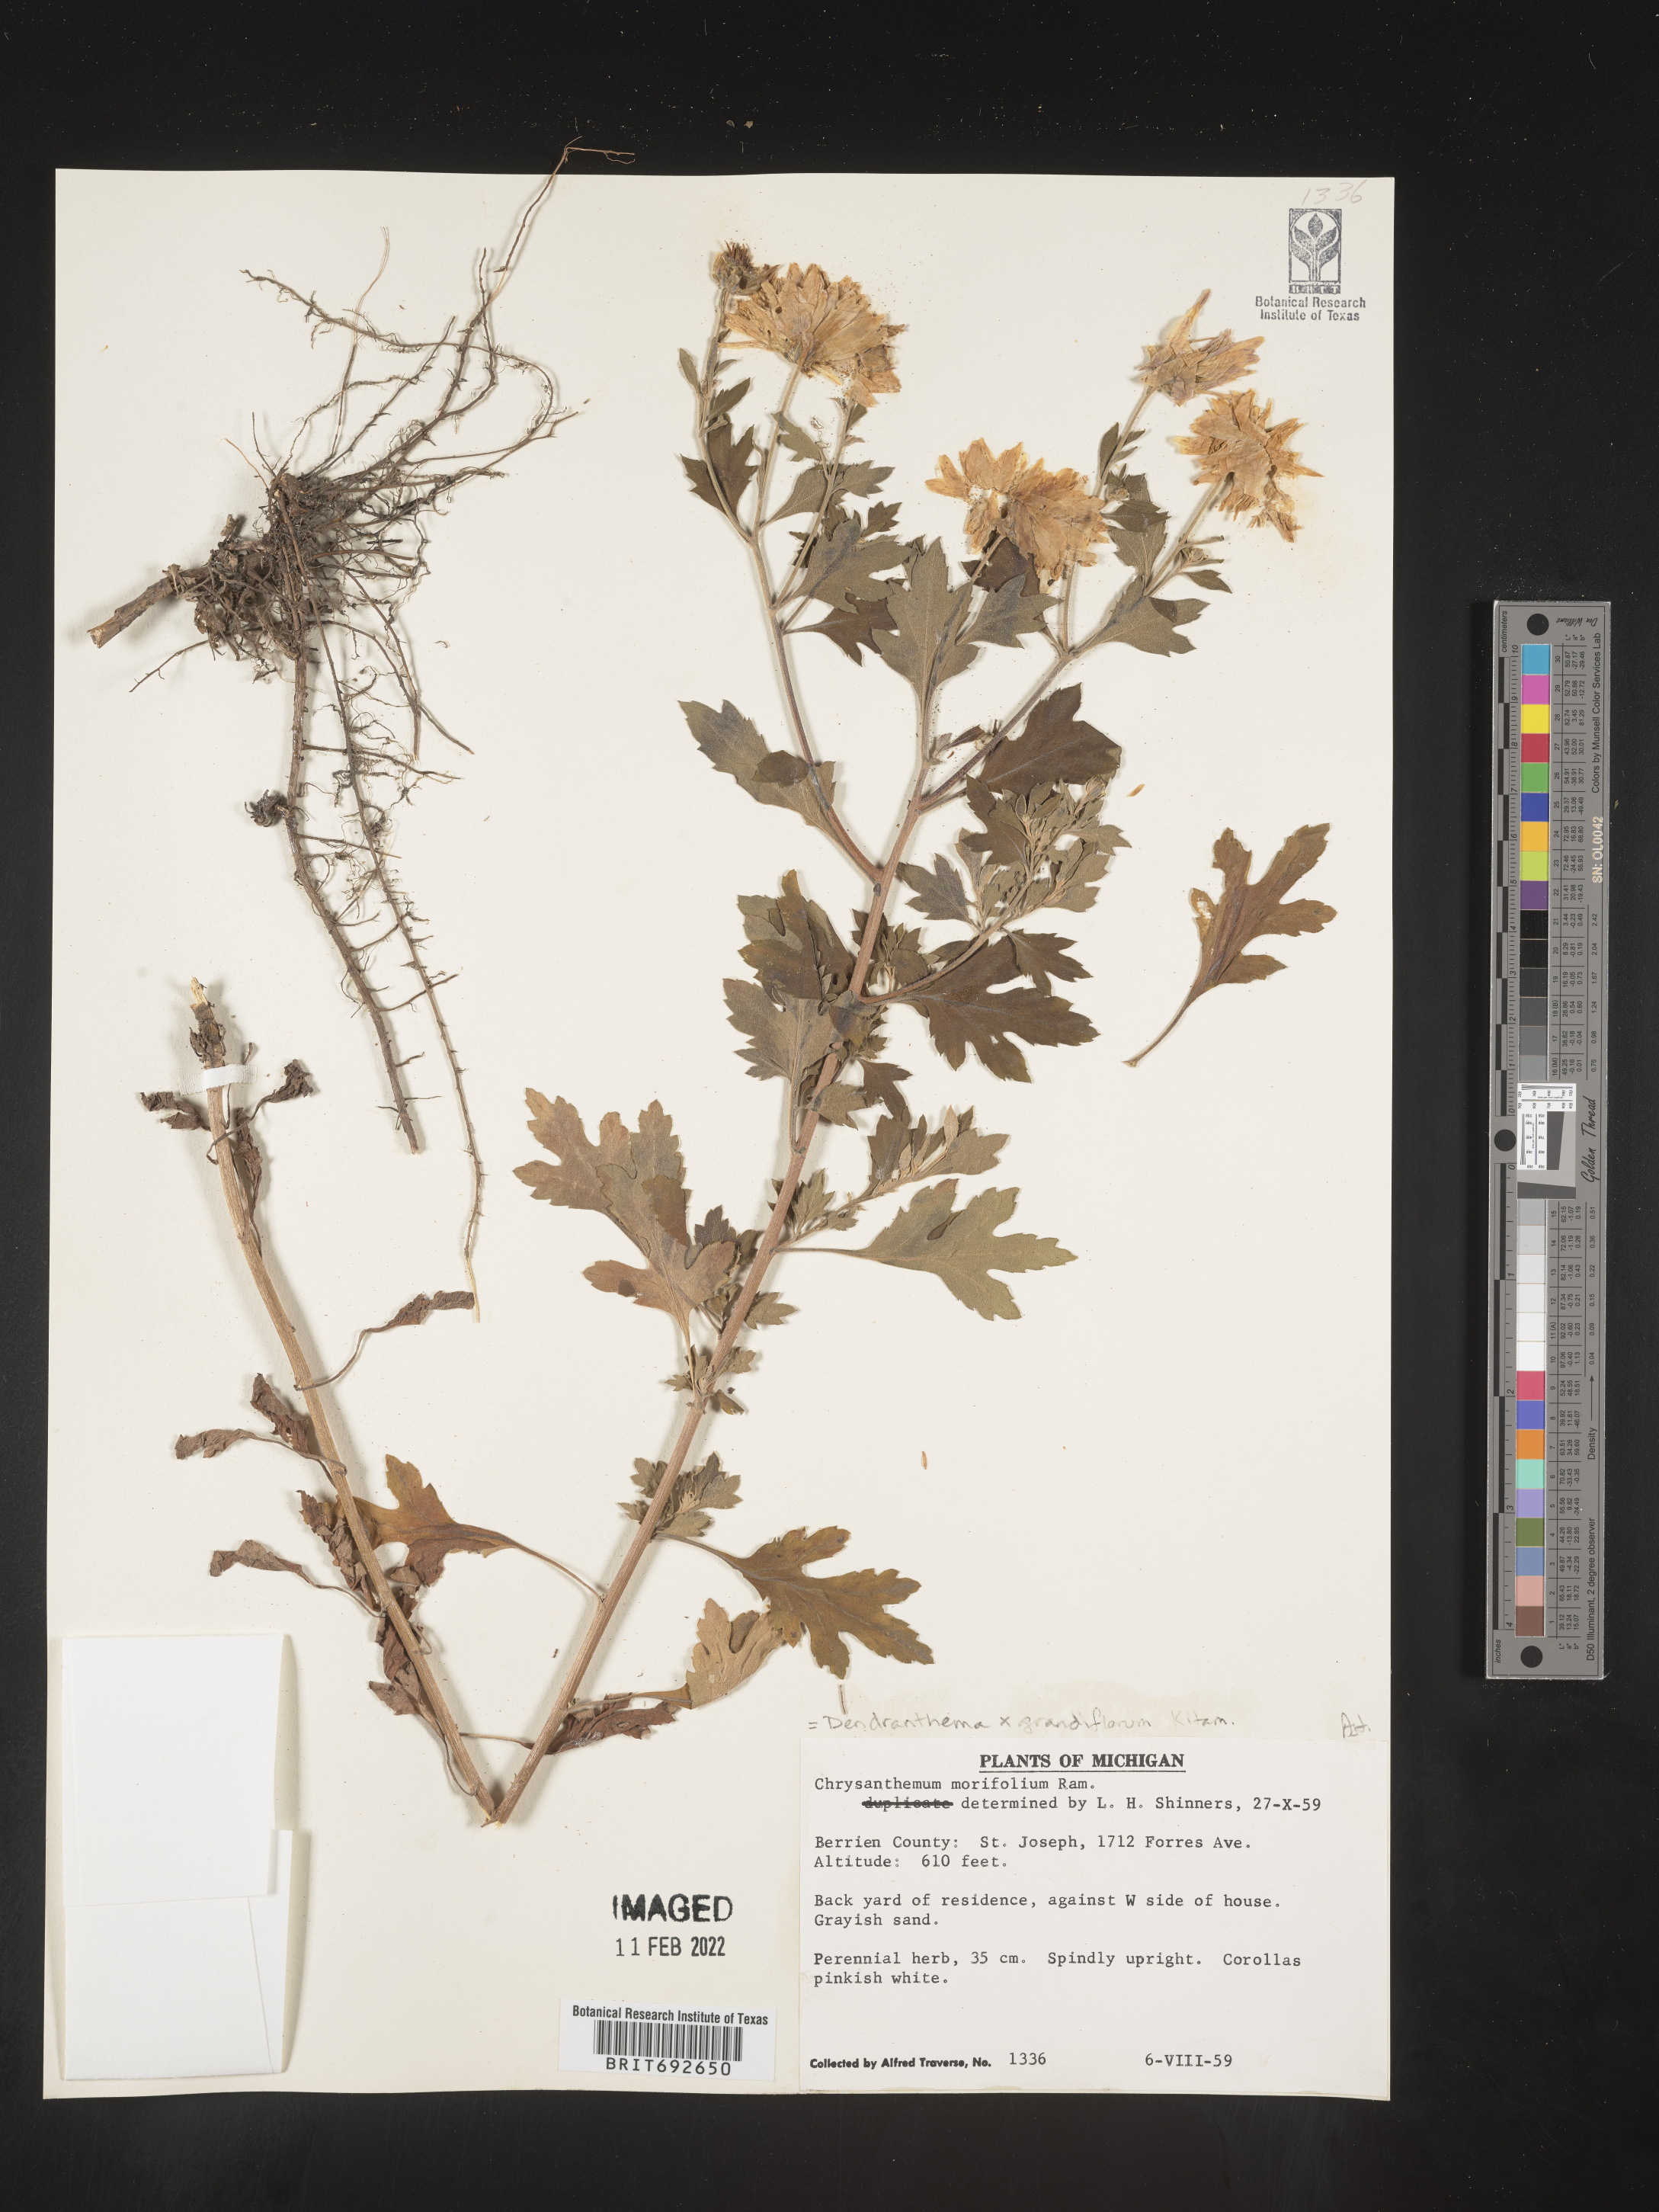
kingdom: Plantae
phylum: Tracheophyta
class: Magnoliopsida
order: Asterales
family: Asteraceae
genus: Chrysanthemum
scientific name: Chrysanthemum
